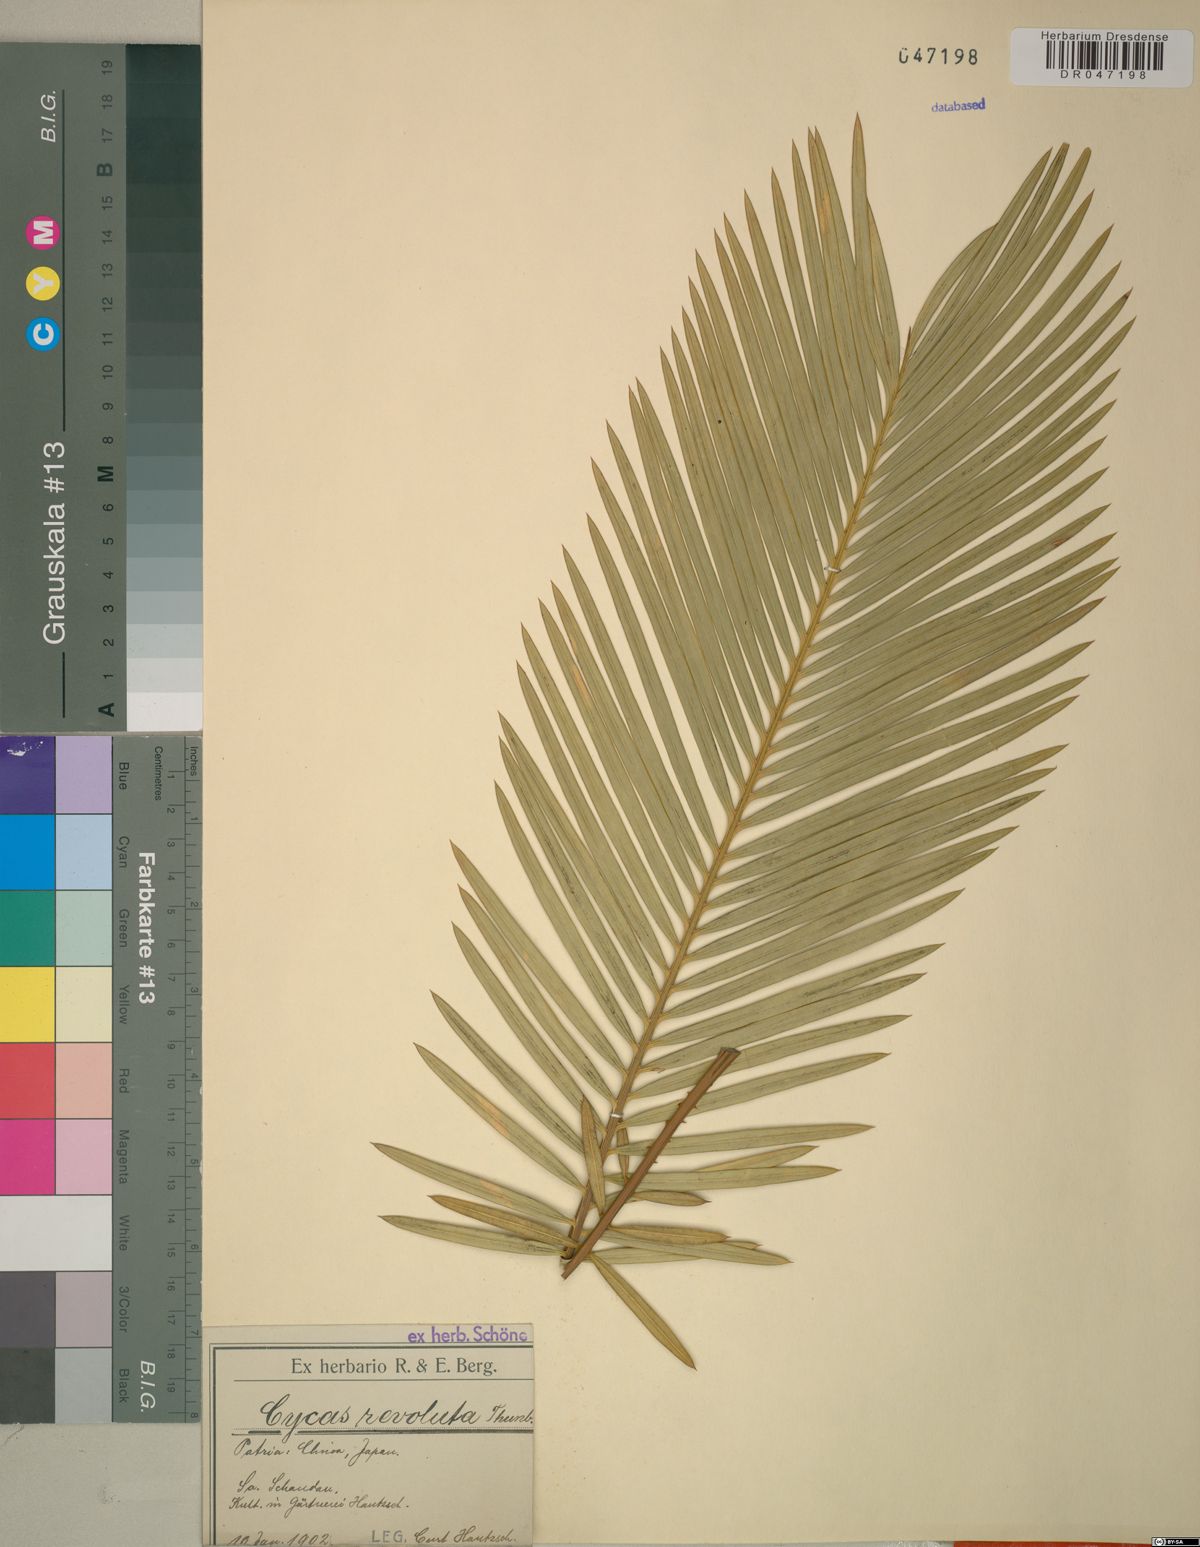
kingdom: Plantae
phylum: Tracheophyta
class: Cycadopsida
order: Cycadales
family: Cycadaceae
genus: Cycas
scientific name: Cycas revoluta
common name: Sago palm
